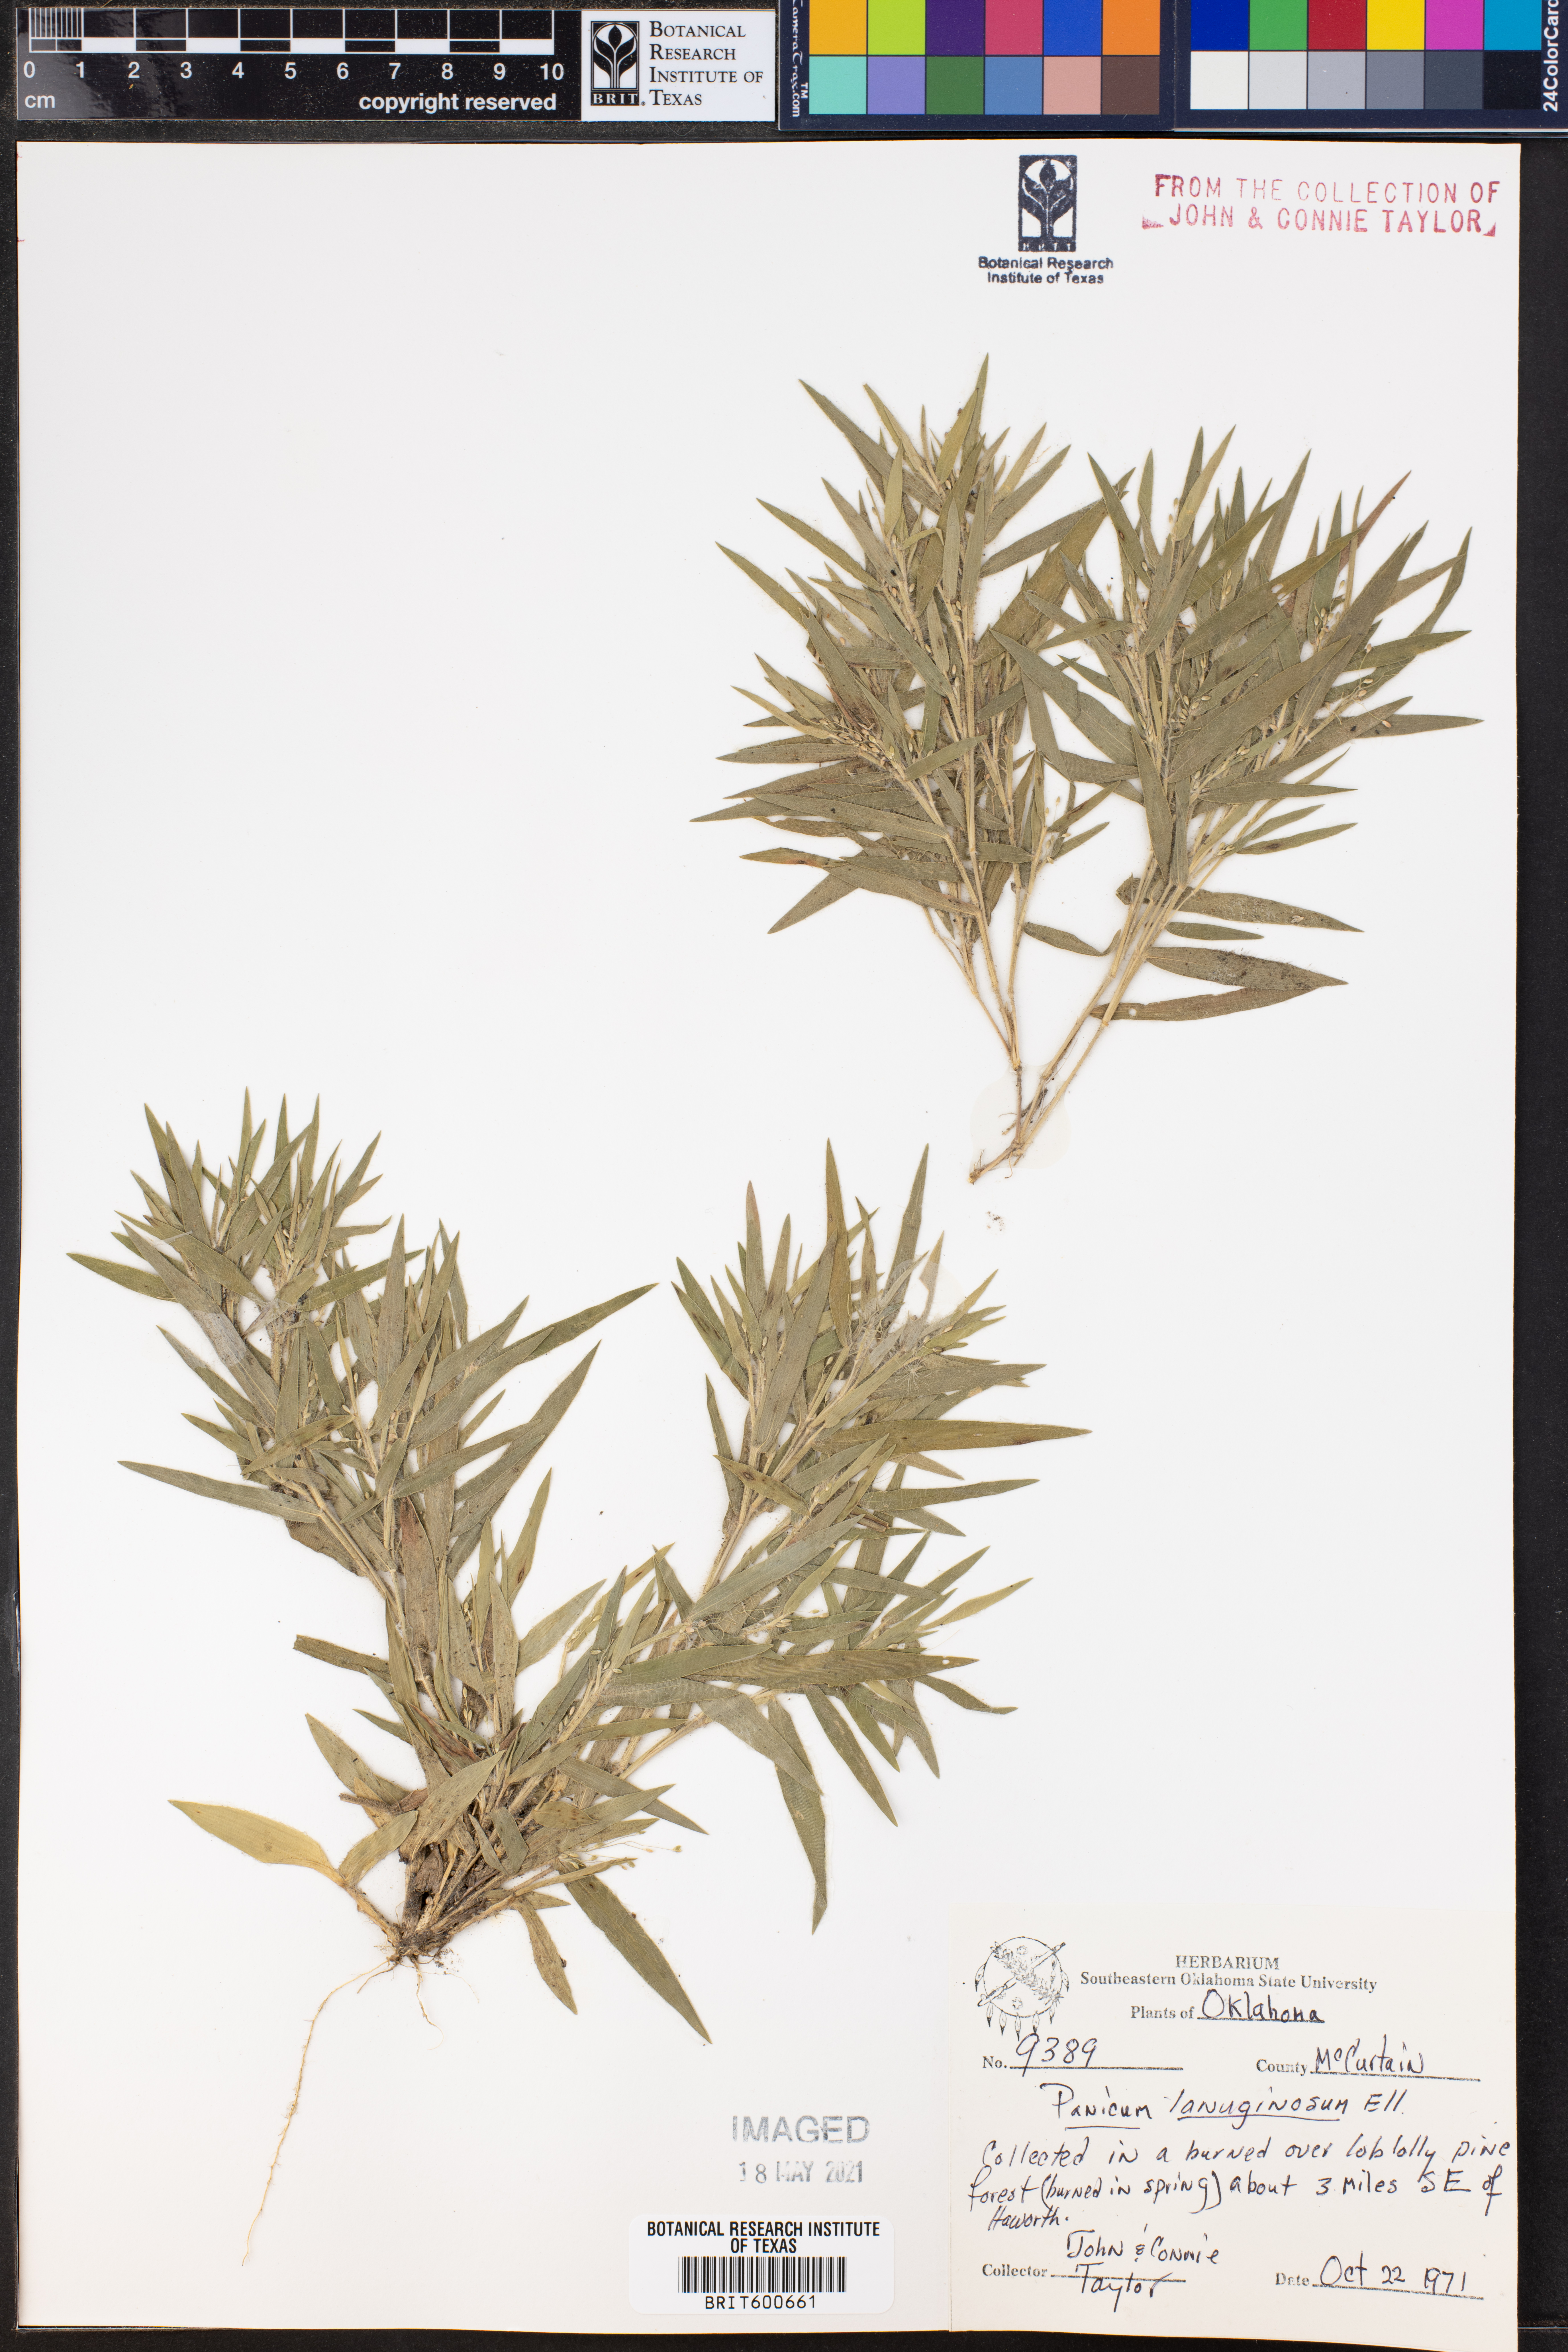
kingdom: Plantae
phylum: Tracheophyta
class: Liliopsida
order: Poales
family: Poaceae
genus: Dichanthelium
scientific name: Dichanthelium lanuginosum
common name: Woolly panicgrass
